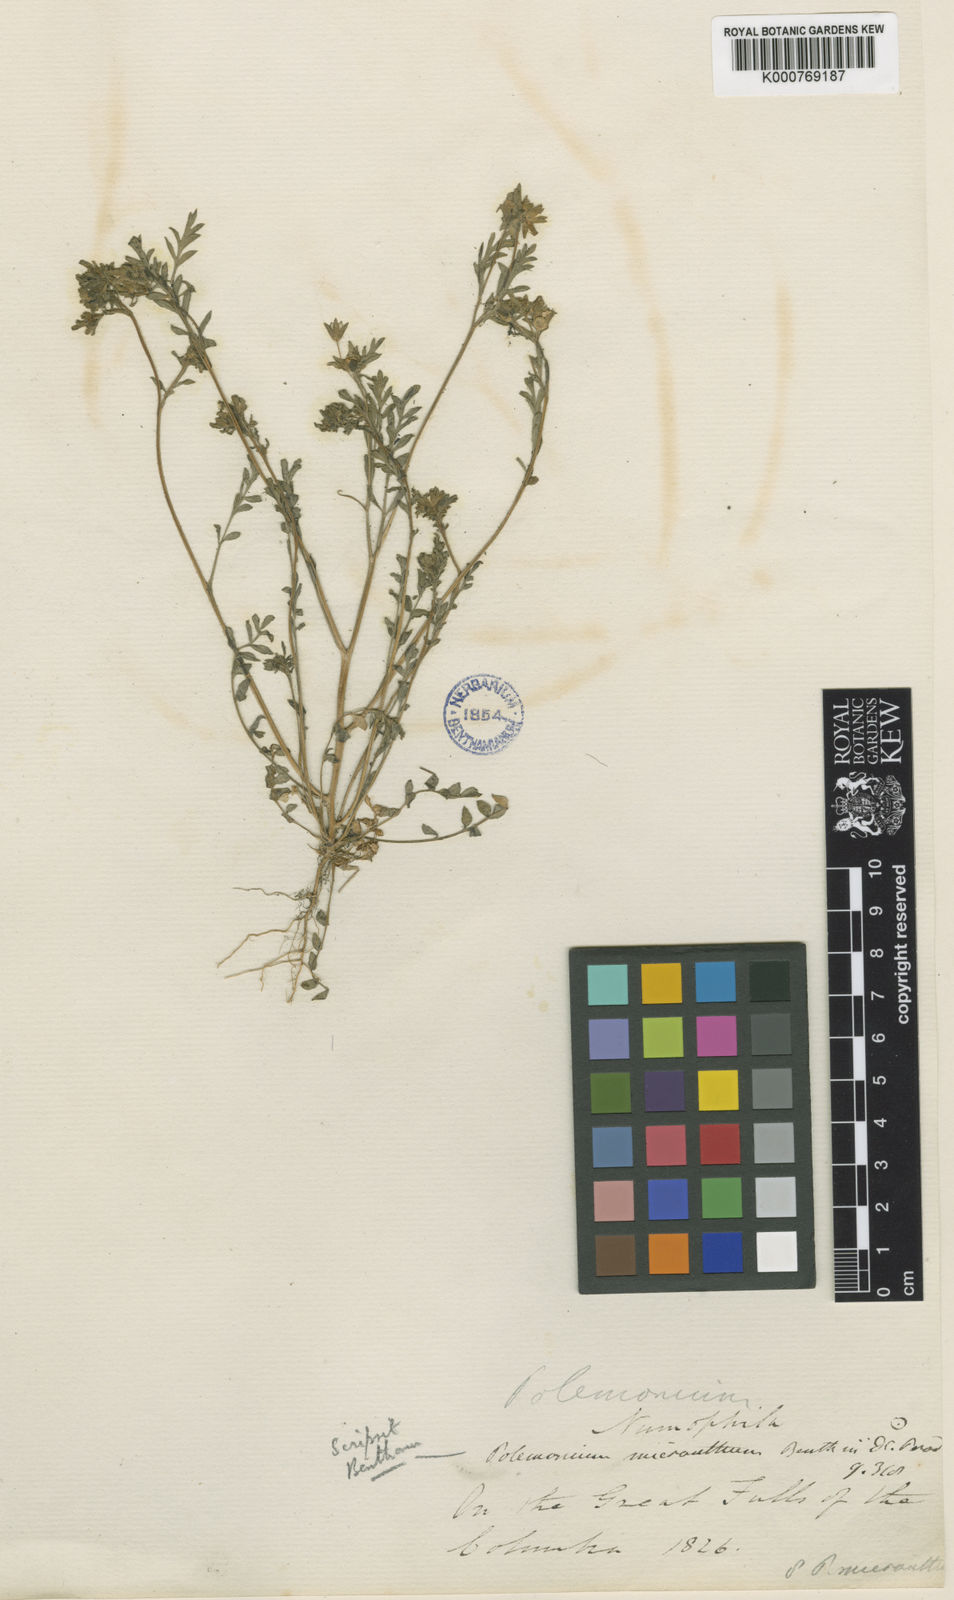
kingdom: Plantae
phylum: Tracheophyta
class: Magnoliopsida
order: Ericales
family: Polemoniaceae
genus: Polemonium
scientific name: Polemonium micranthum
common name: Annual jacob's-ladder
